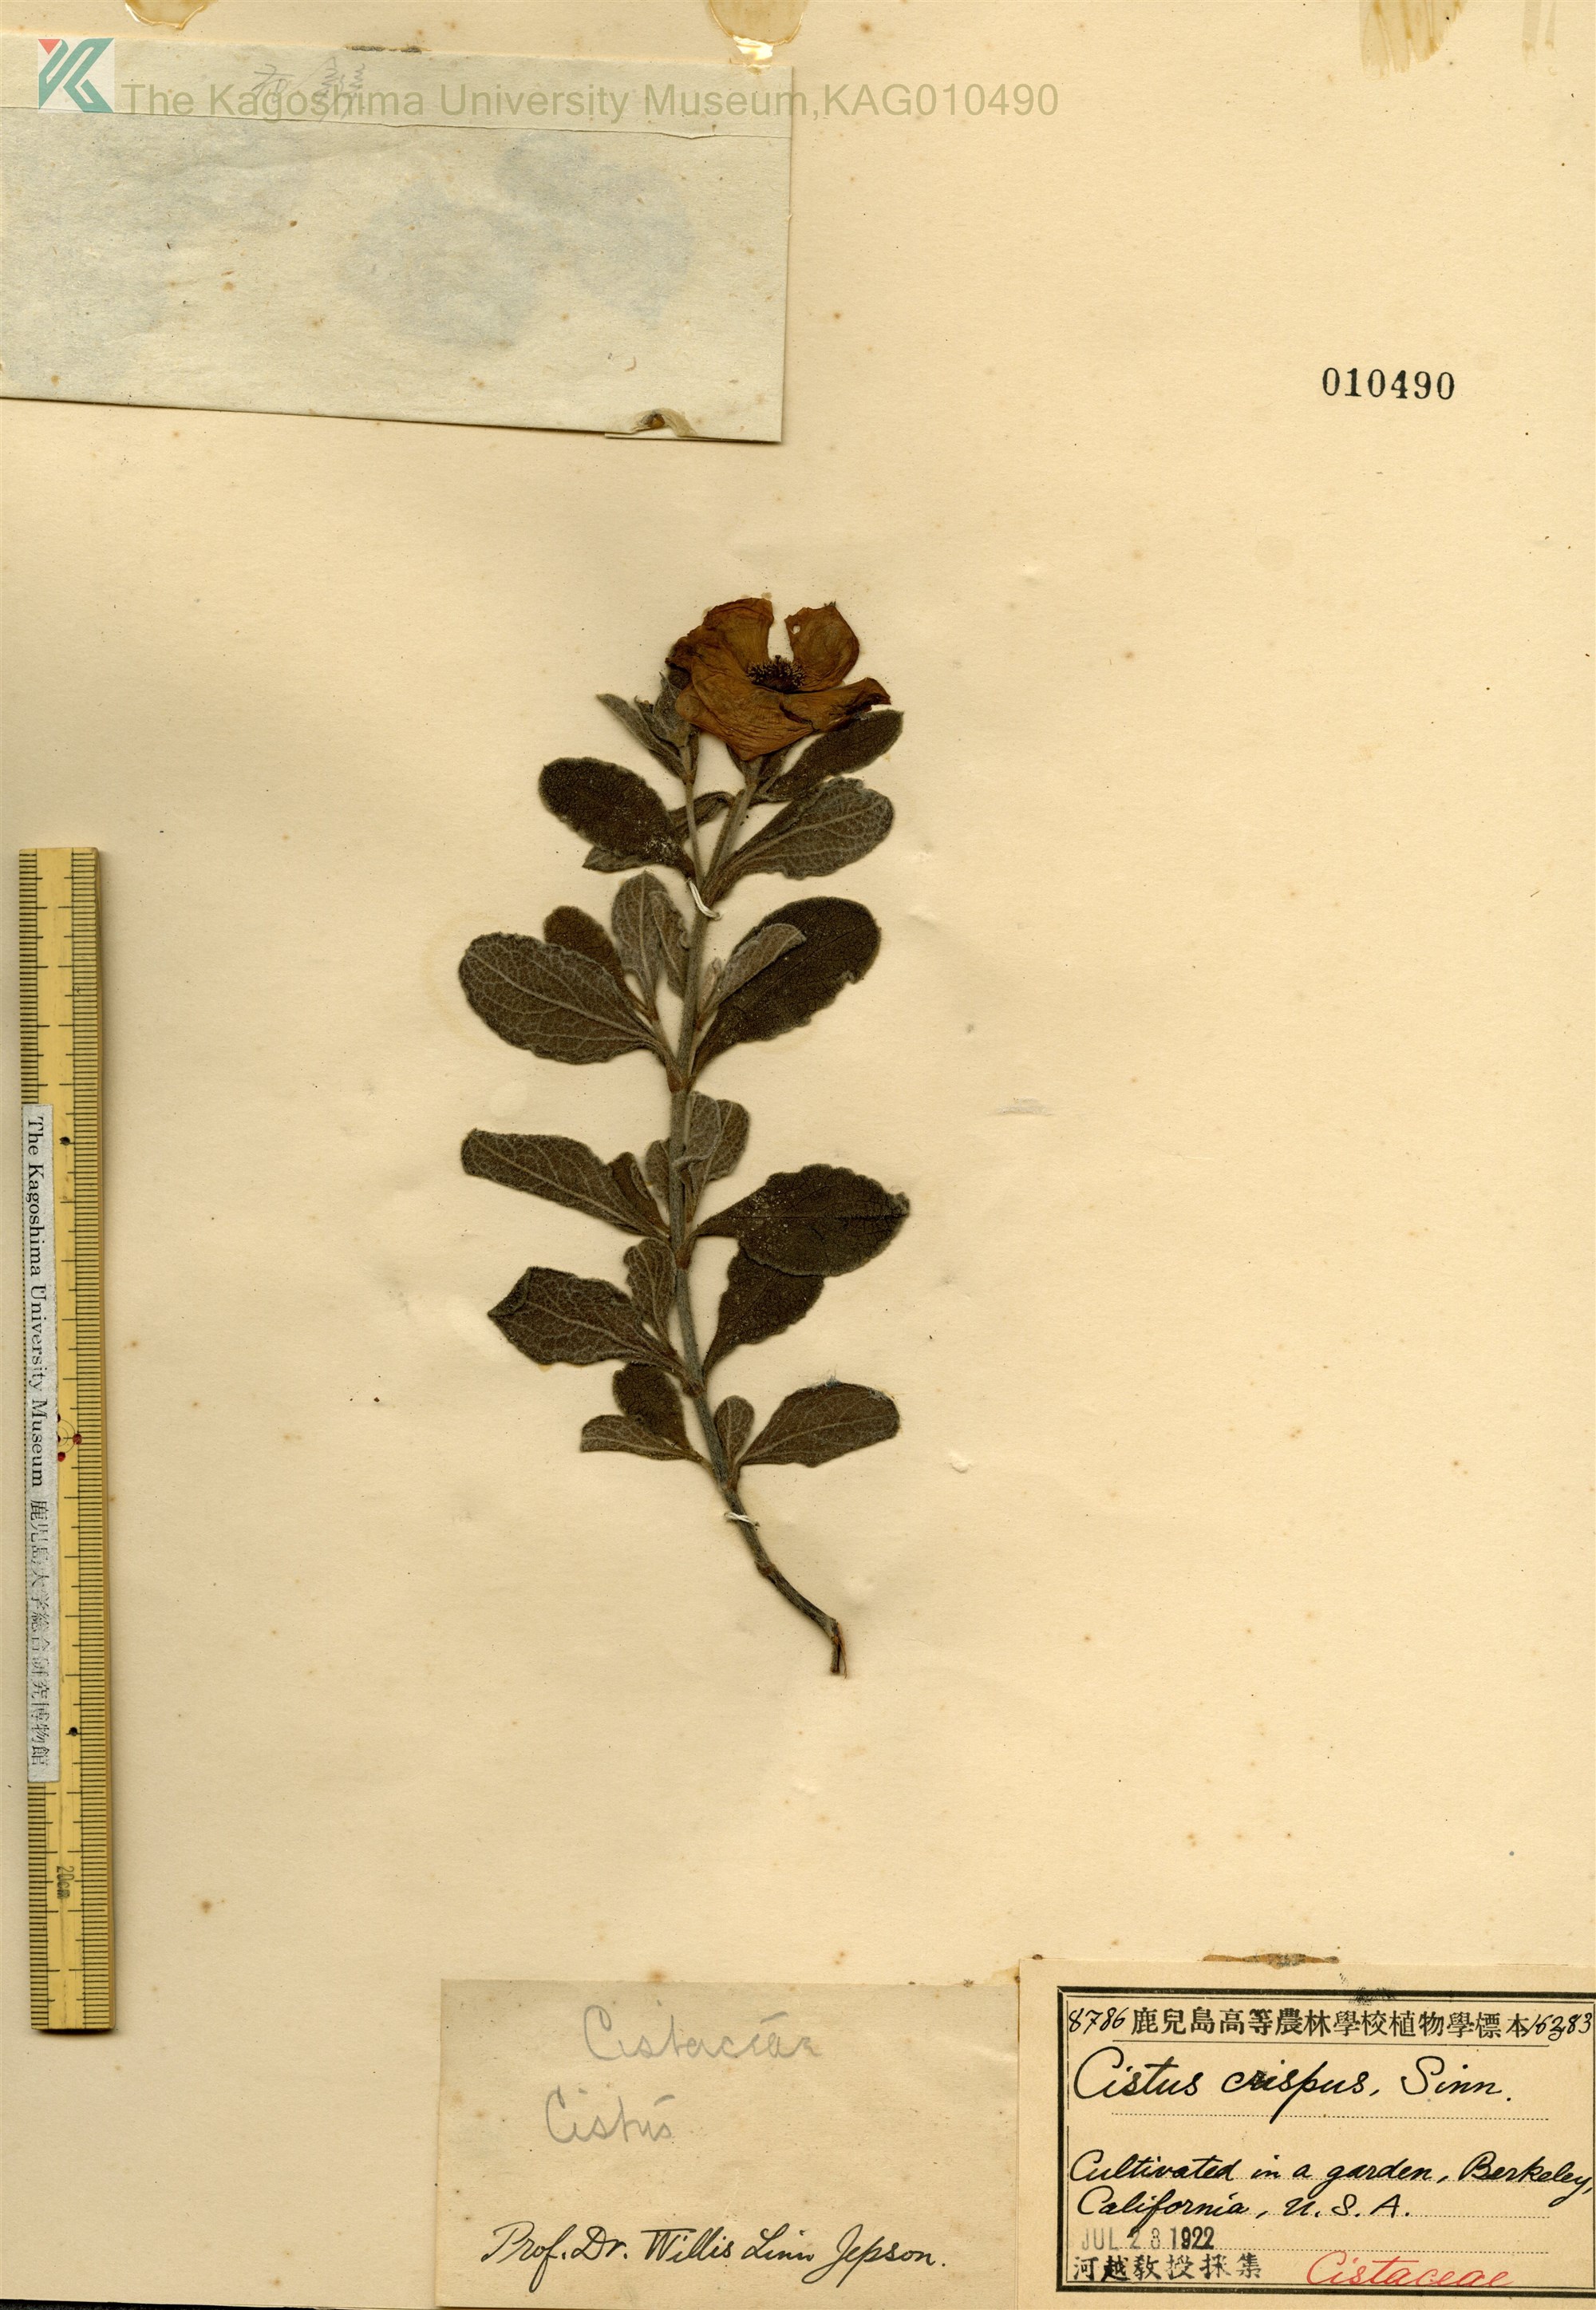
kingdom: Plantae
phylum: Tracheophyta
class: Magnoliopsida
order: Malvales
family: Cistaceae
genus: Cistus
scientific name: Cistus crispus
